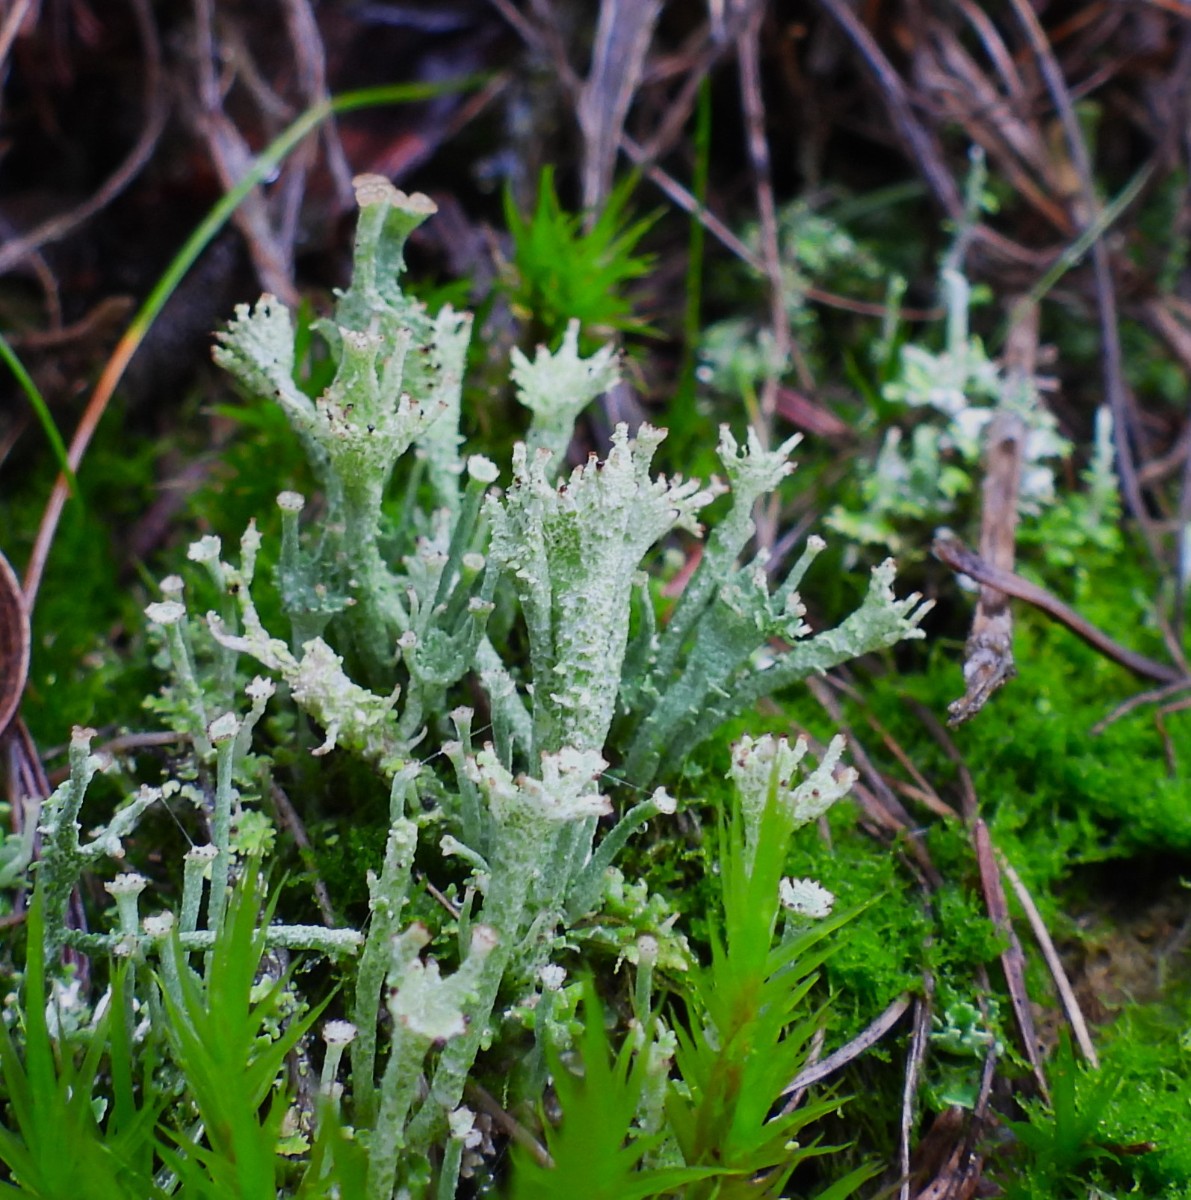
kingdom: Fungi
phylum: Ascomycota
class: Lecanoromycetes
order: Lecanorales
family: Cladoniaceae
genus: Cladonia
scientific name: Cladonia ramulosa
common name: kliddet bægerlav
